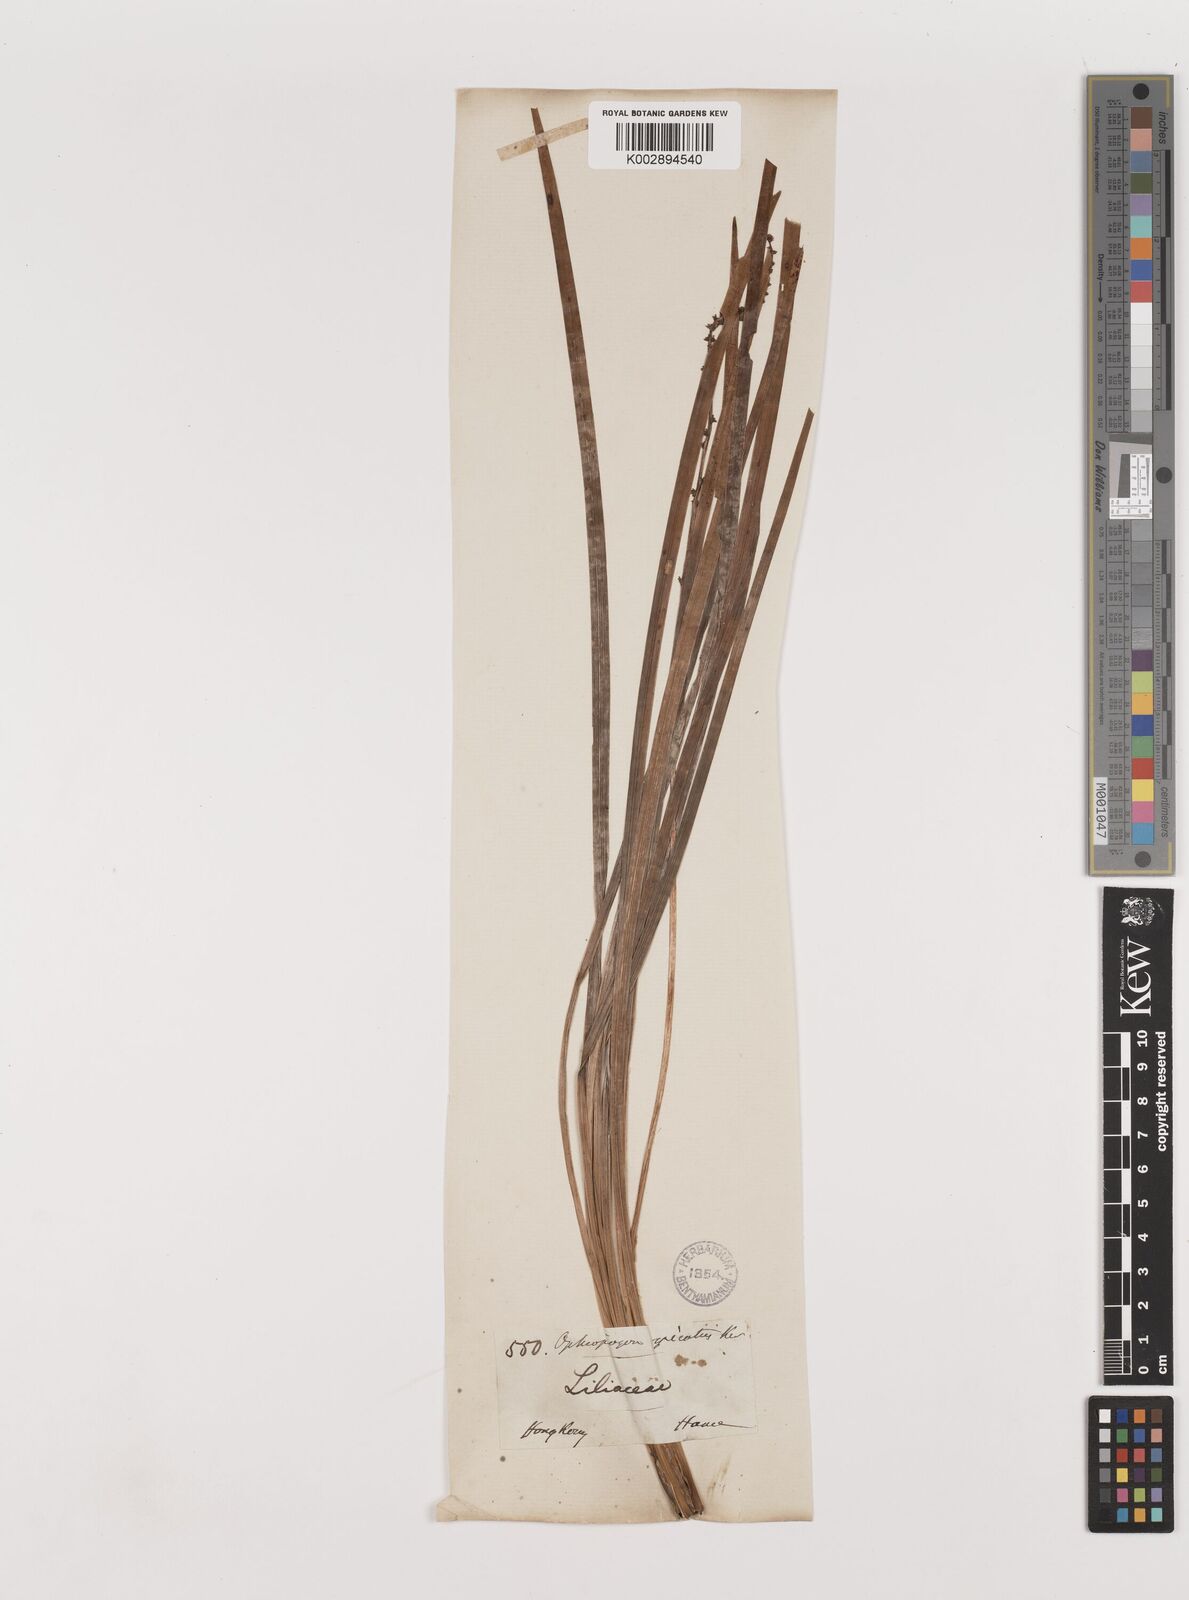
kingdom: Plantae
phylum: Tracheophyta
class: Liliopsida
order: Asparagales
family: Asparagaceae
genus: Liriope
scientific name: Liriope spicata
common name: Creeping liriope
